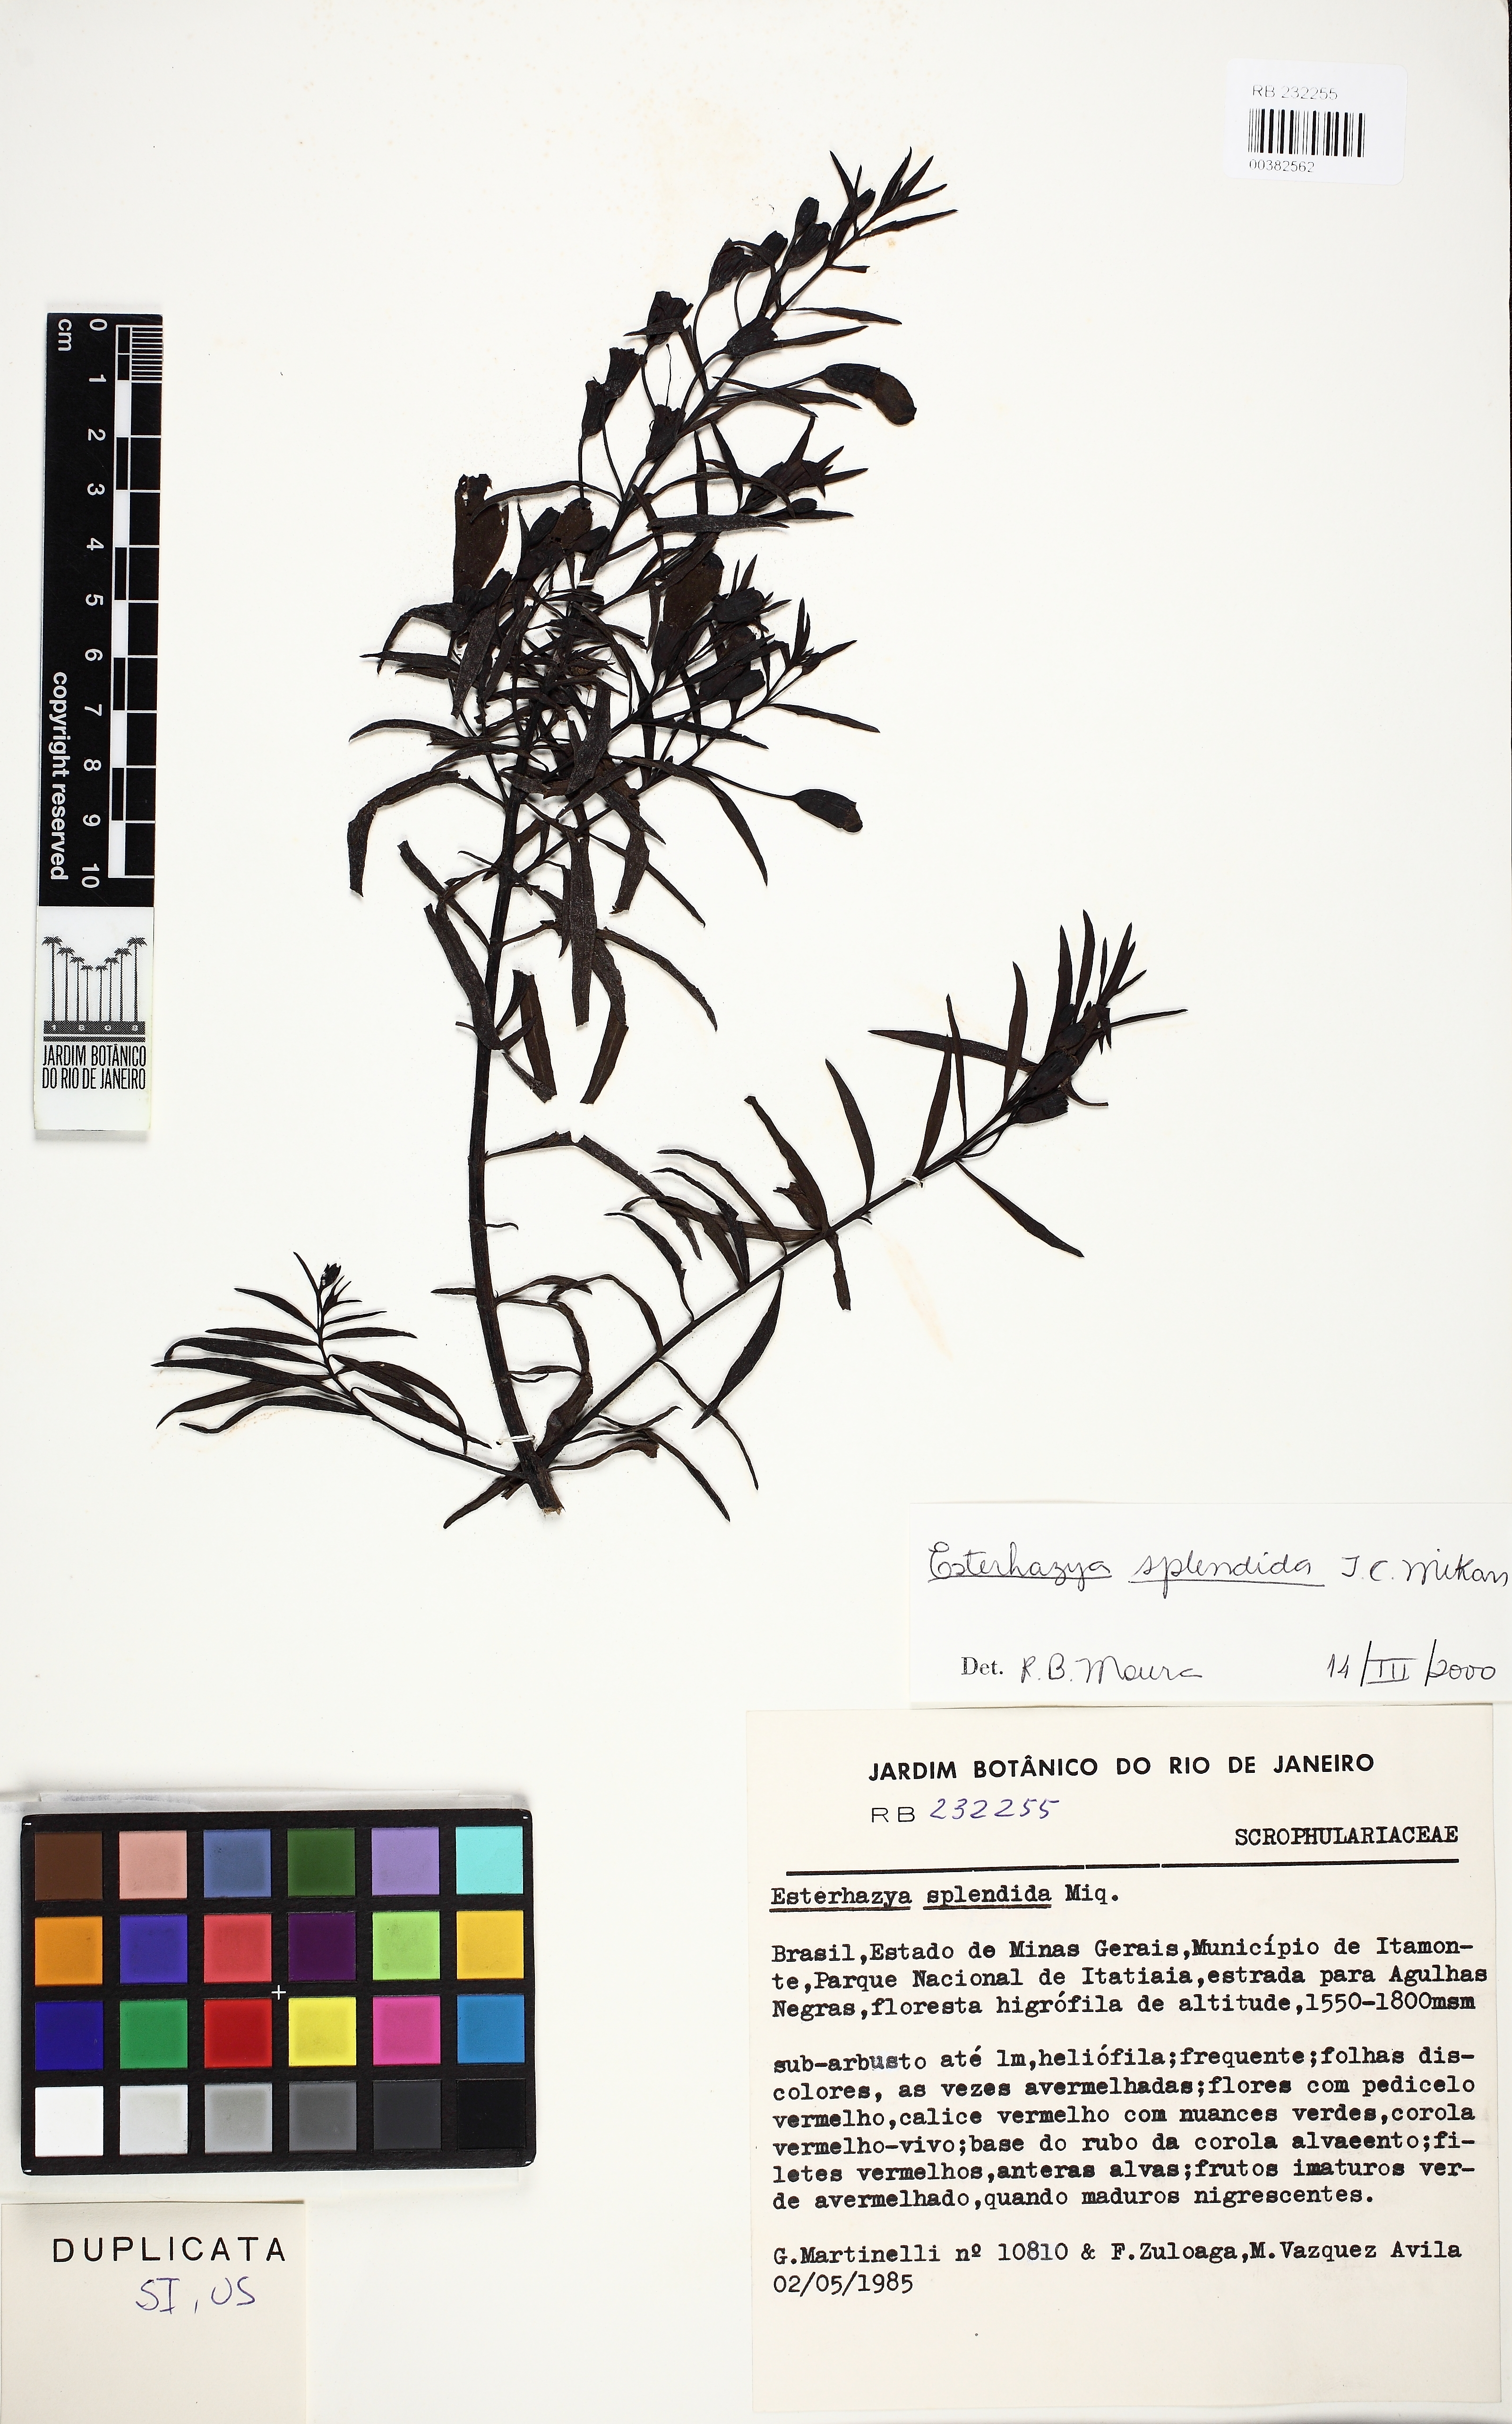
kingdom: Plantae
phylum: Tracheophyta
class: Magnoliopsida
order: Lamiales
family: Orobanchaceae
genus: Esterhazya
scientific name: Esterhazya splendida
